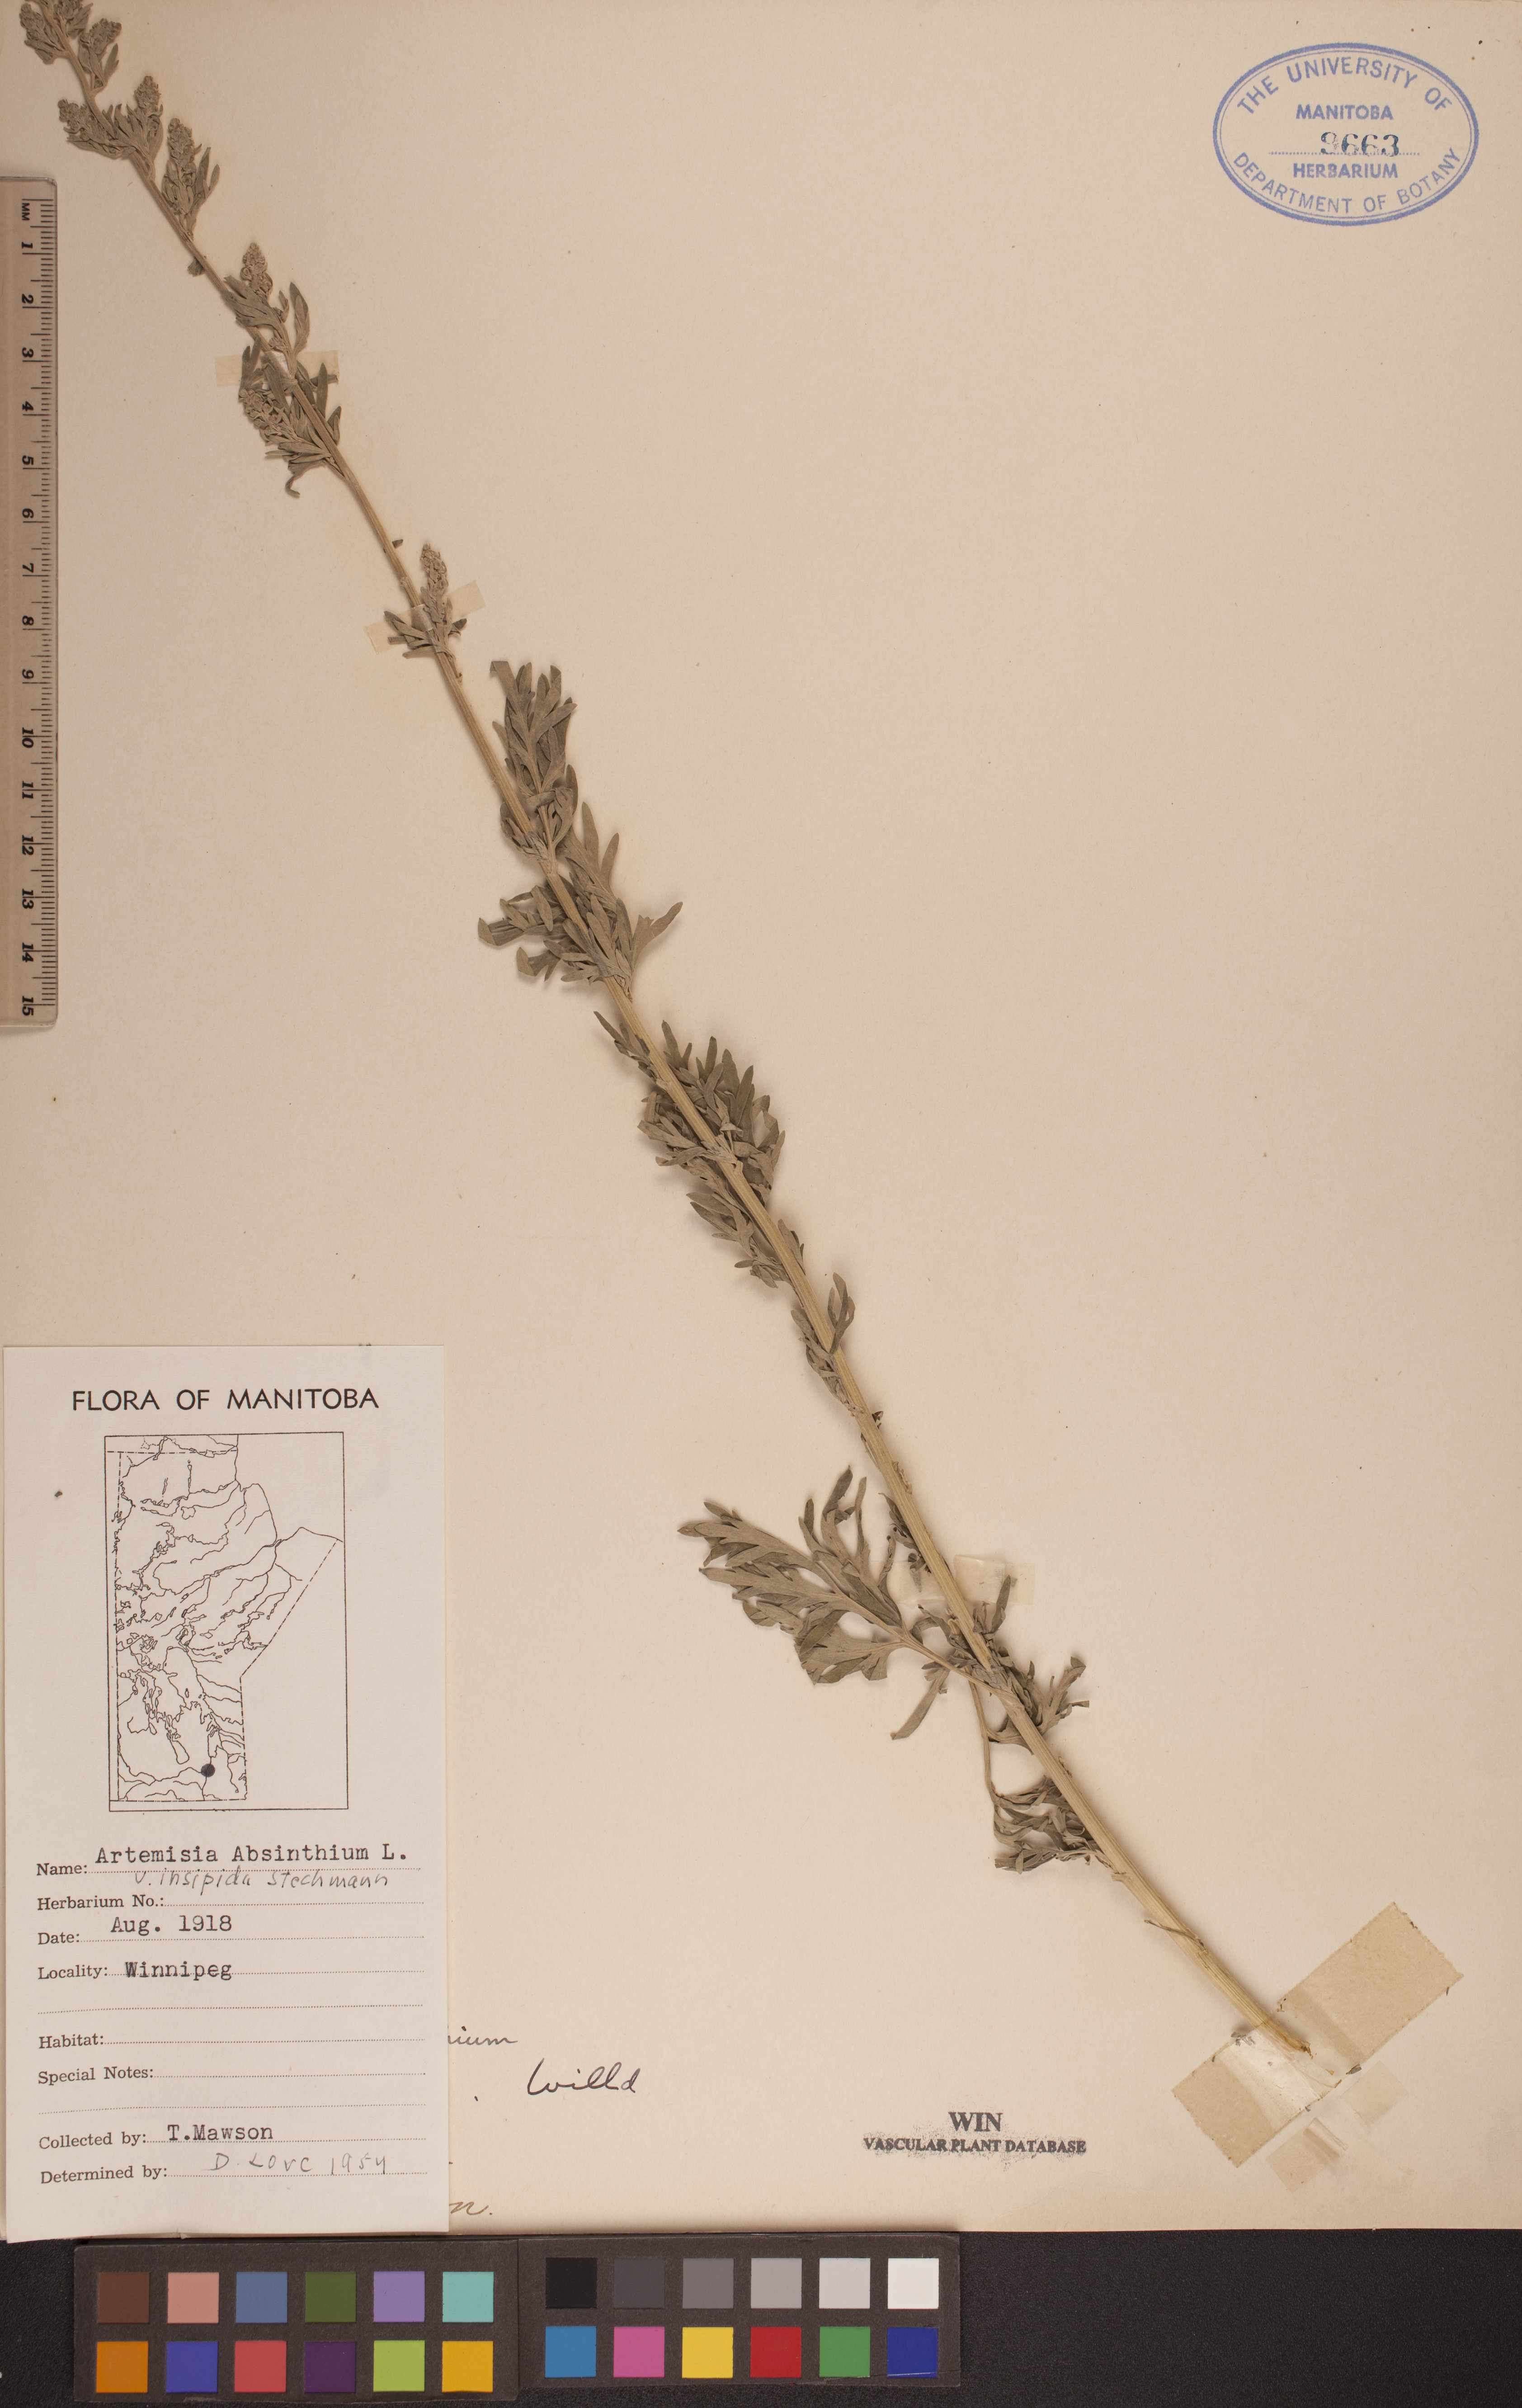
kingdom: Plantae
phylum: Tracheophyta
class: Magnoliopsida
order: Asterales
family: Asteraceae
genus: Artemisia
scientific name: Artemisia absinthium
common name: Wormwood
